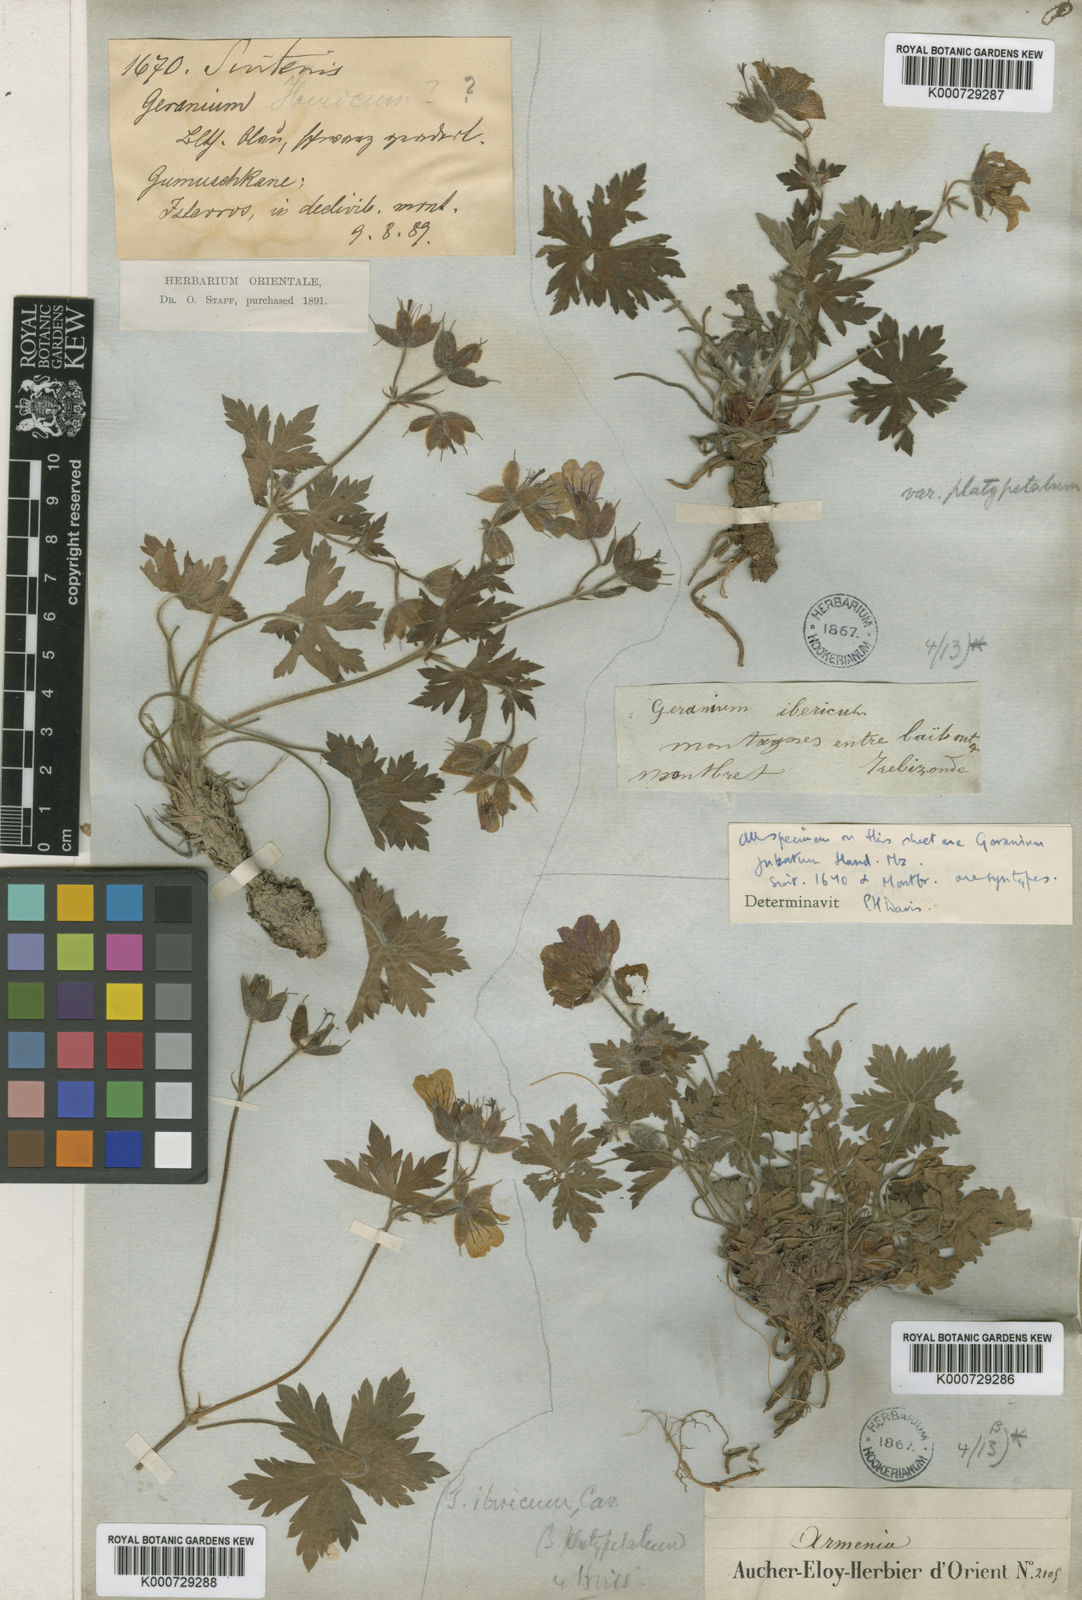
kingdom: Plantae
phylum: Tracheophyta
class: Magnoliopsida
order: Geraniales
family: Geraniaceae
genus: Geranium
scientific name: Geranium ibericum
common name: Caucasian crane's-bill
